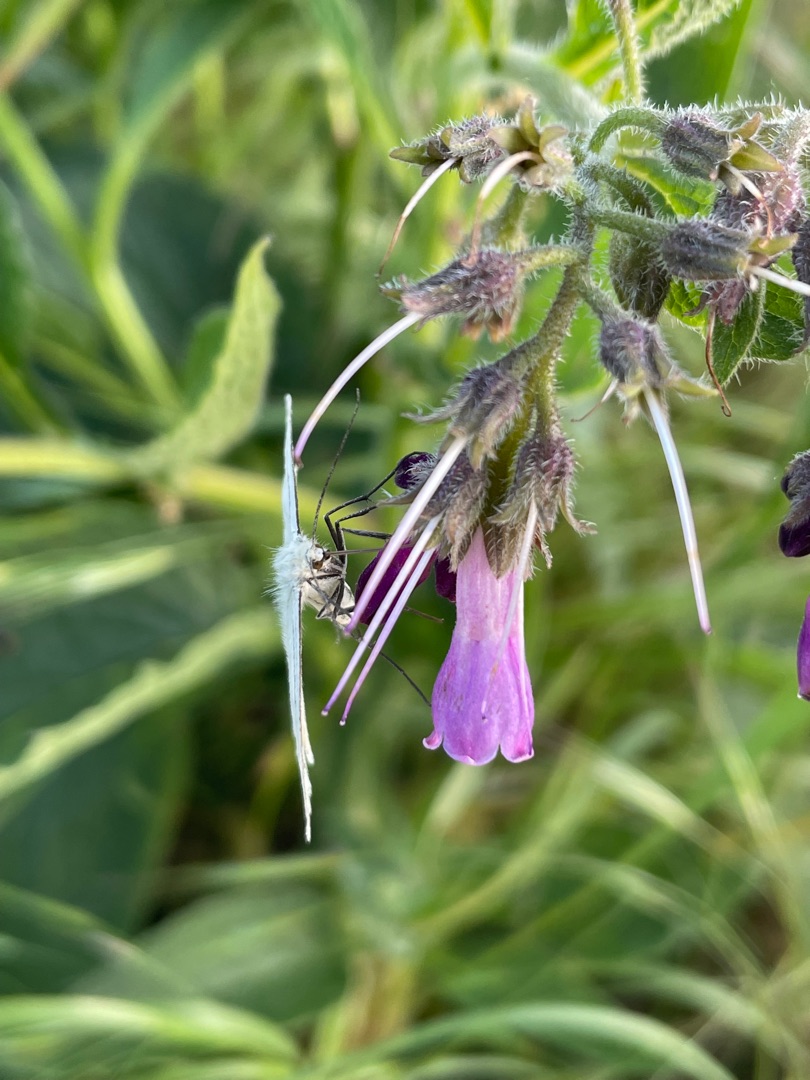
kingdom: Animalia
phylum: Arthropoda
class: Insecta
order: Lepidoptera
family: Geometridae
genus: Siona
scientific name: Siona lineata
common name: Hvidvingemåler
